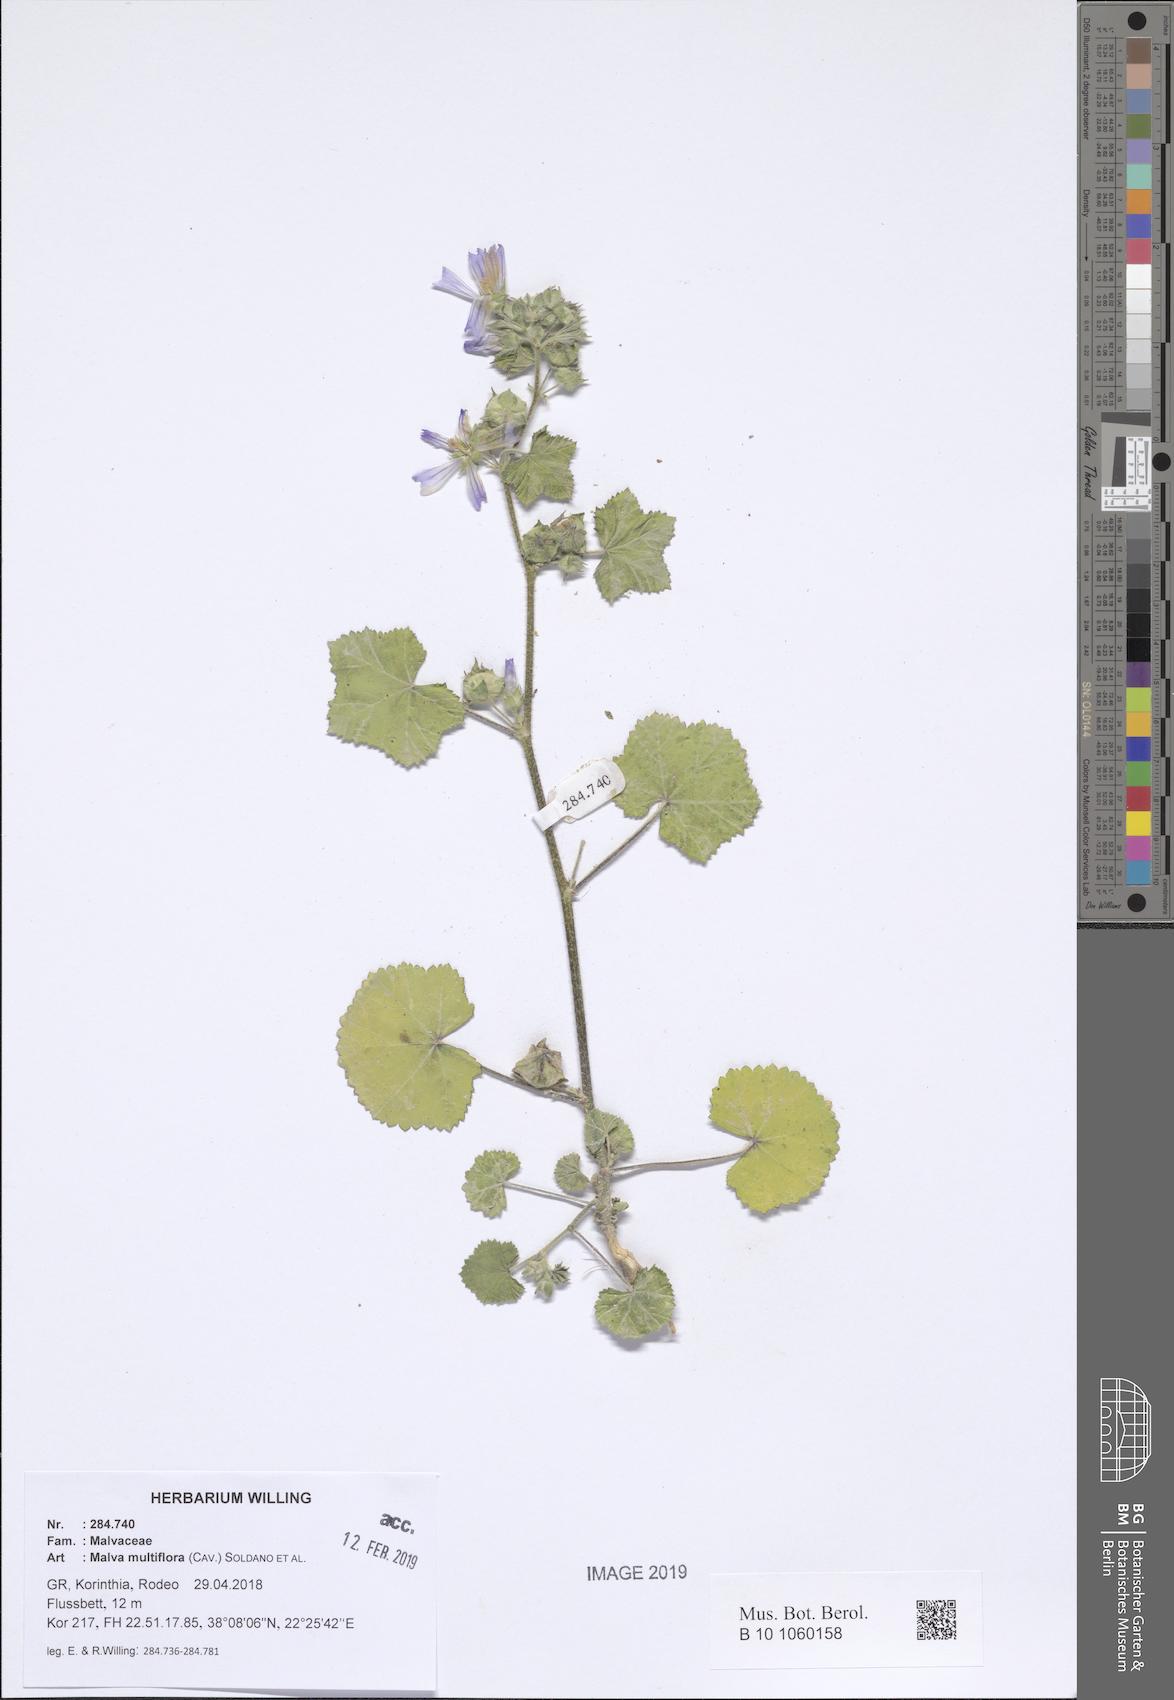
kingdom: Plantae
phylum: Tracheophyta
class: Magnoliopsida
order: Malvales
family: Malvaceae
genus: Malva
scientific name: Malva multiflora
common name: Cheeseweed
